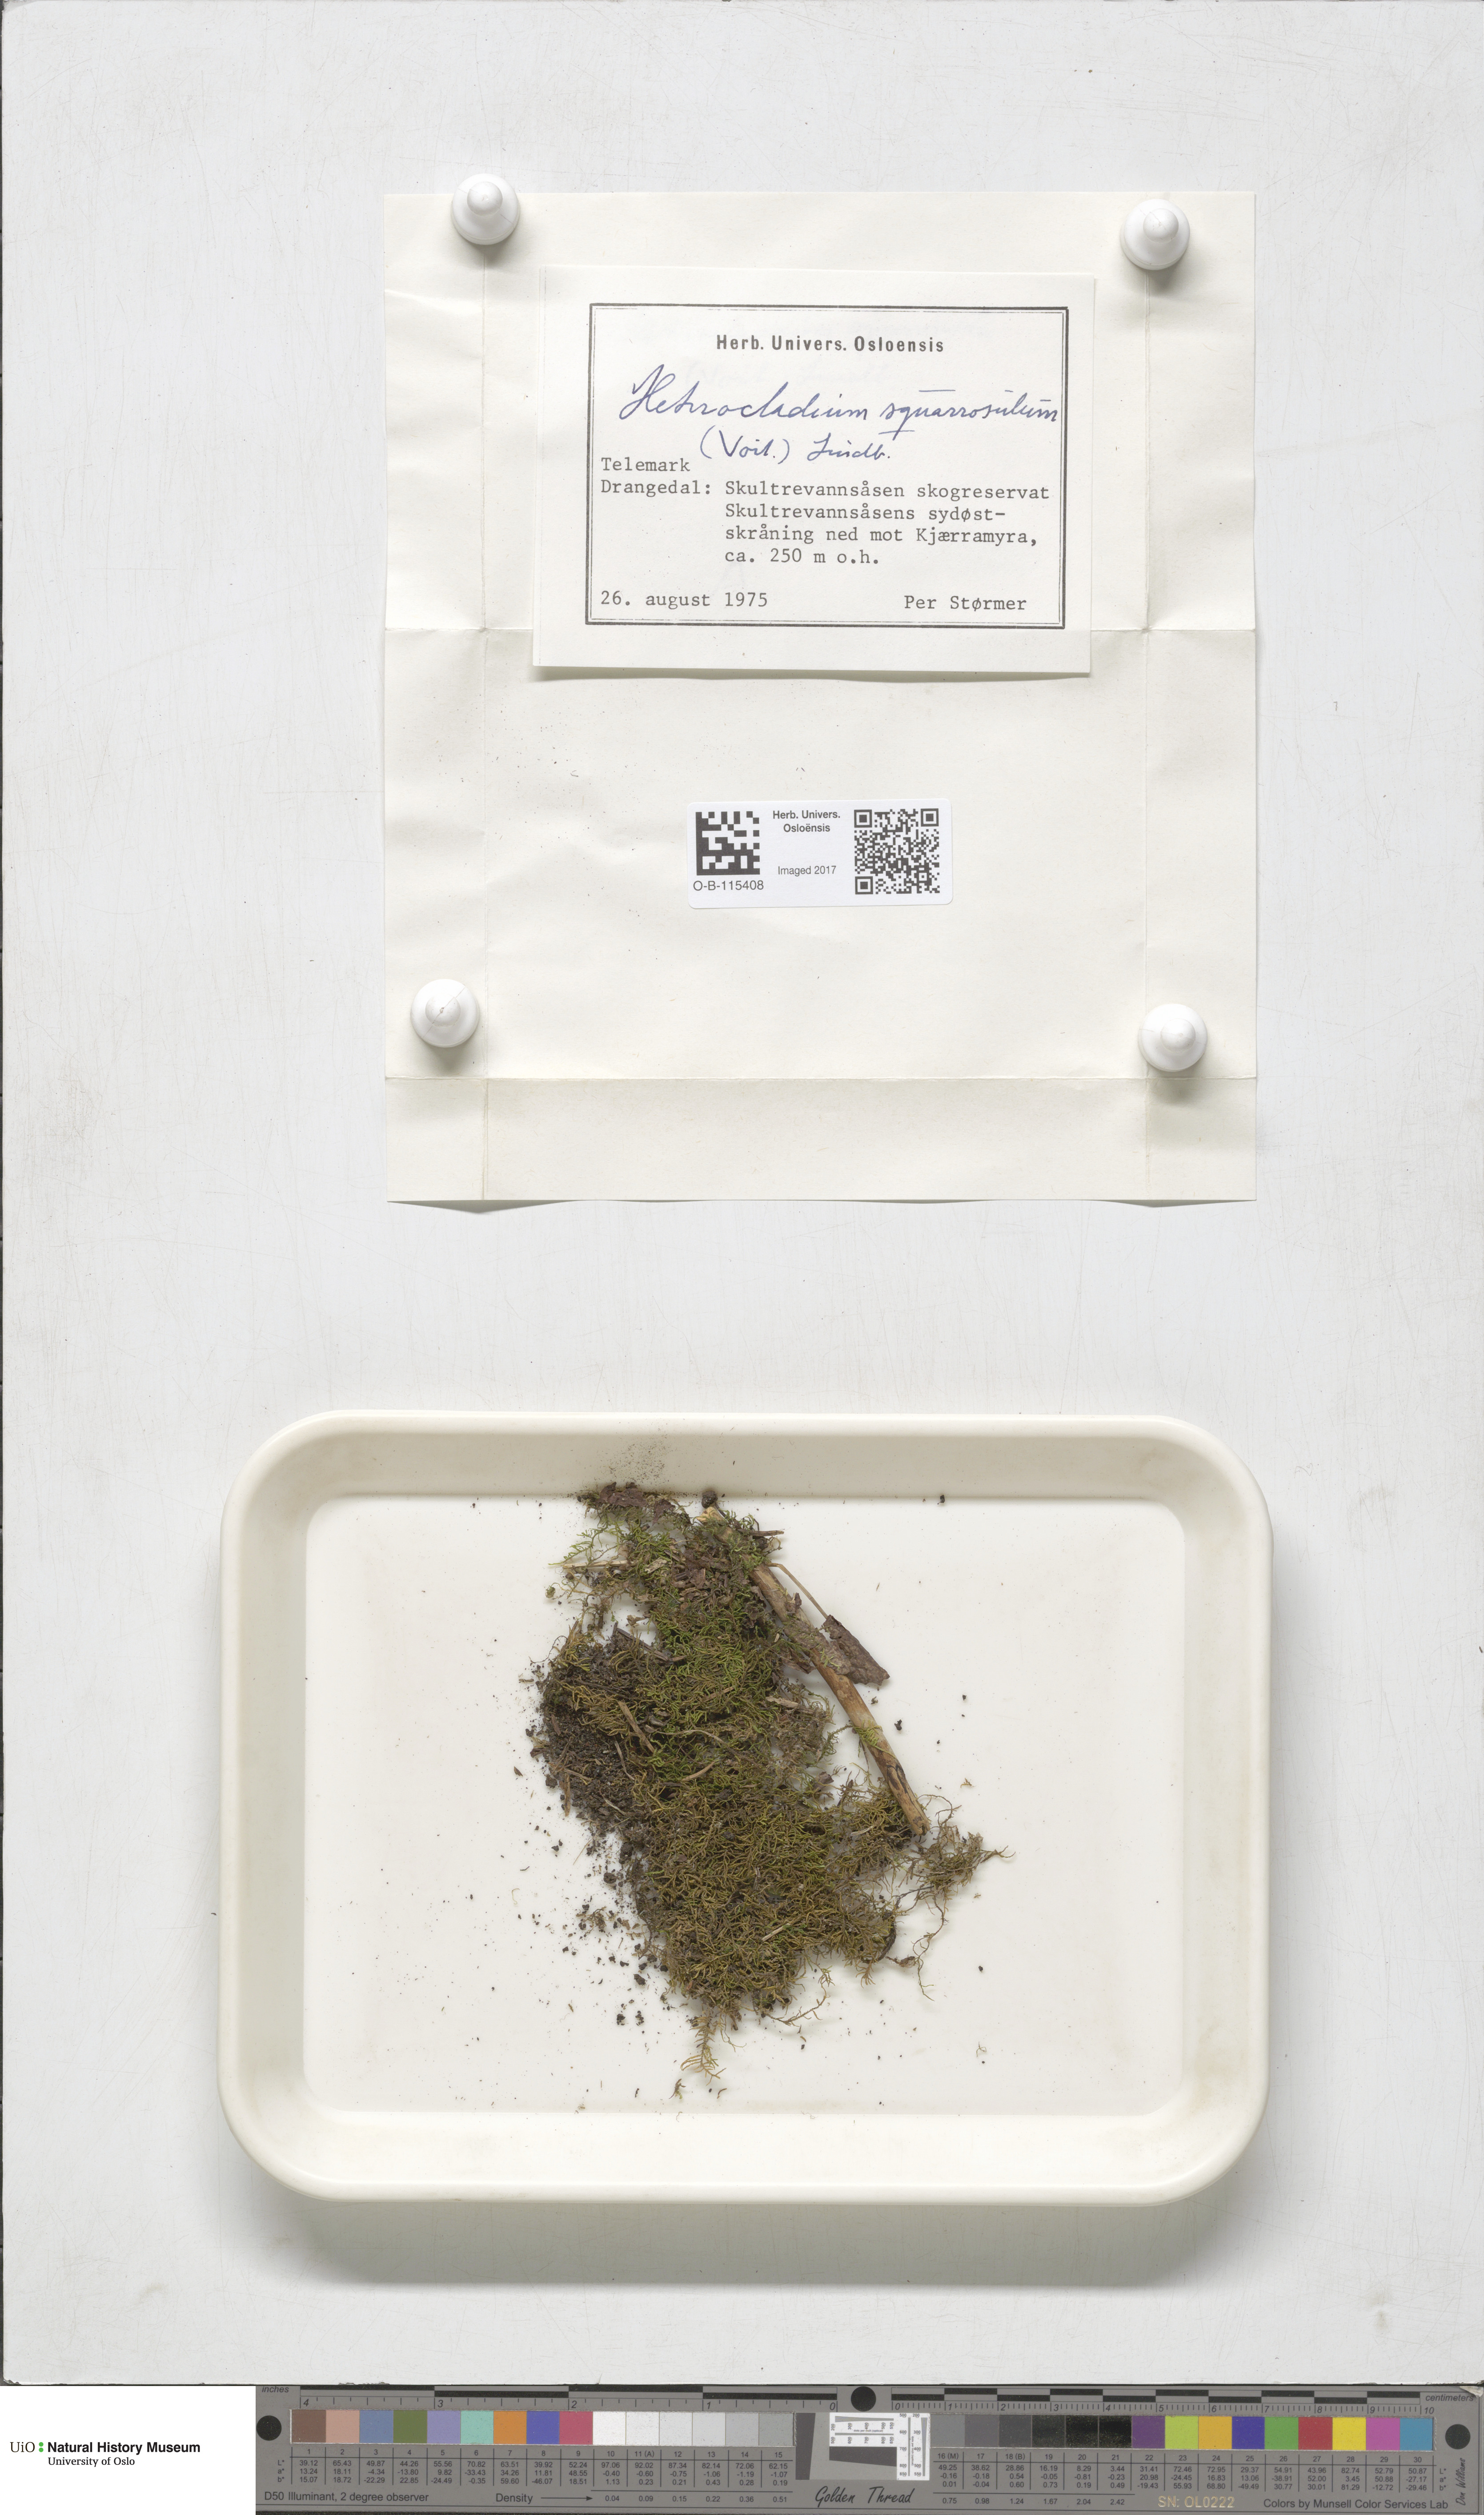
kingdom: Plantae
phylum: Bryophyta
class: Bryopsida
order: Hypnales
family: Heterocladiellaceae
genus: Heterocladiella
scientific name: Heterocladiella dimorpha
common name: Dimorphous tamarisk-moss
